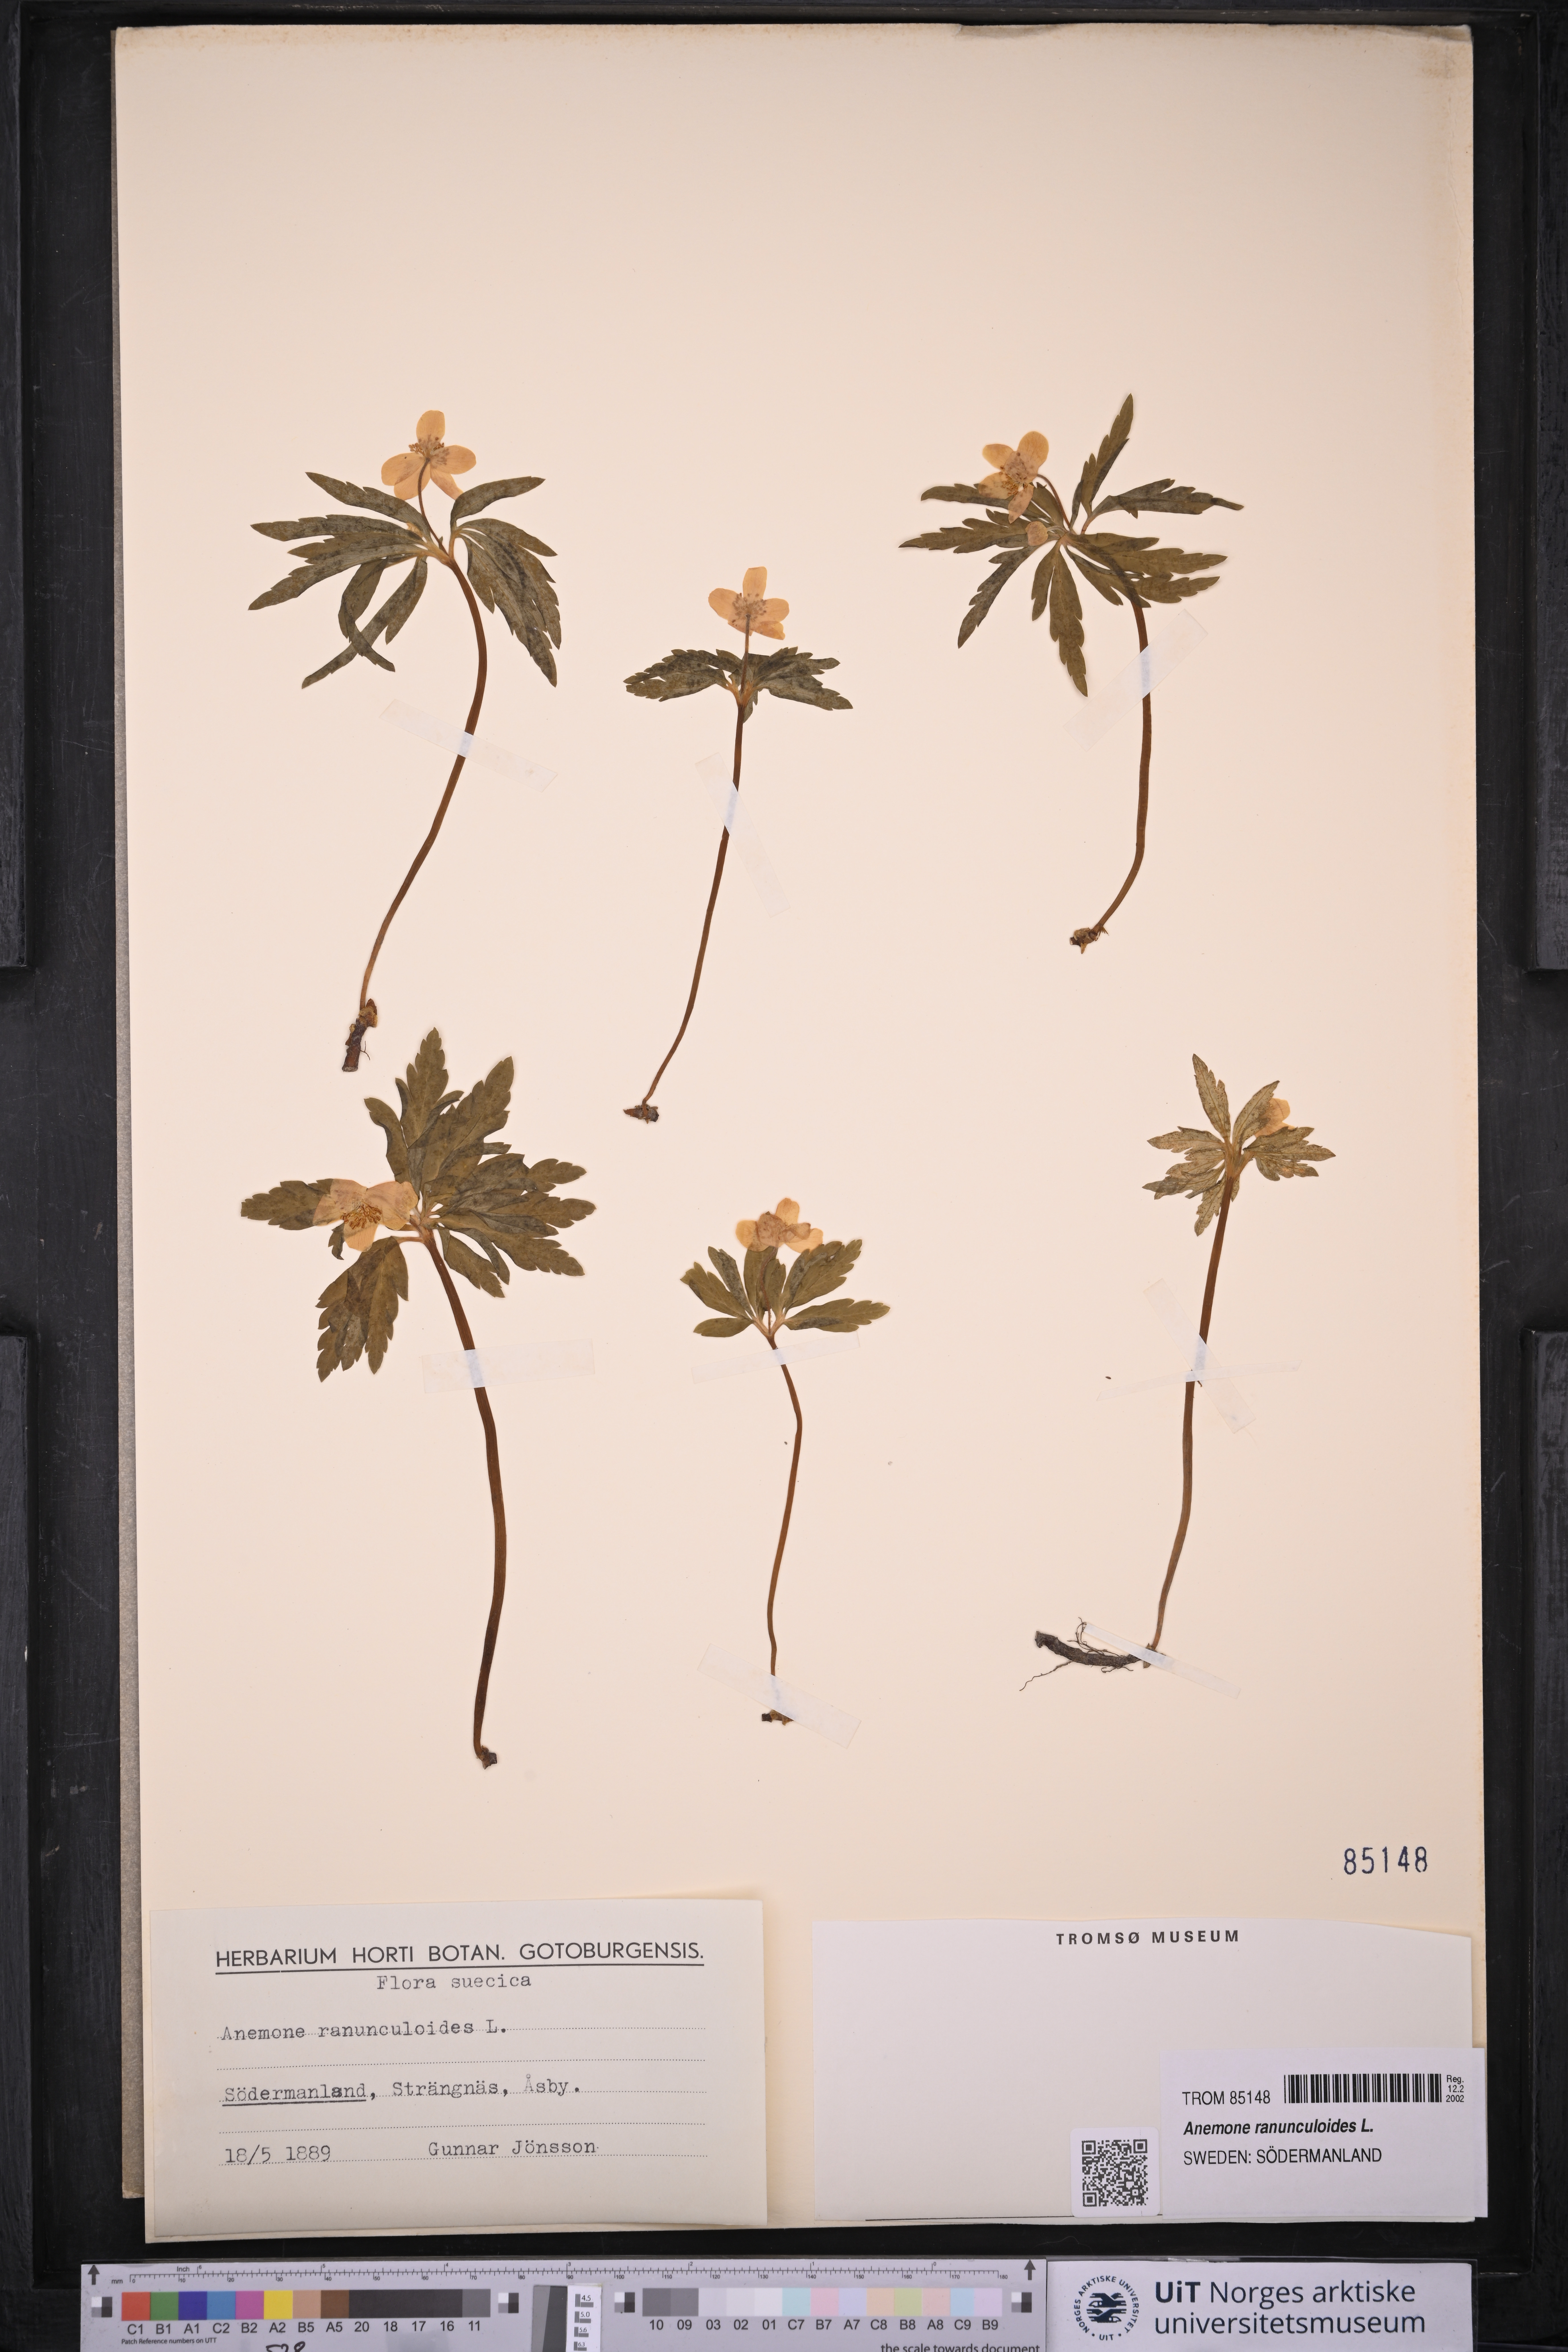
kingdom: Plantae
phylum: Tracheophyta
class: Magnoliopsida
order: Ranunculales
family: Ranunculaceae
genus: Anemone
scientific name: Anemone ranunculoides
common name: Yellow anemone
